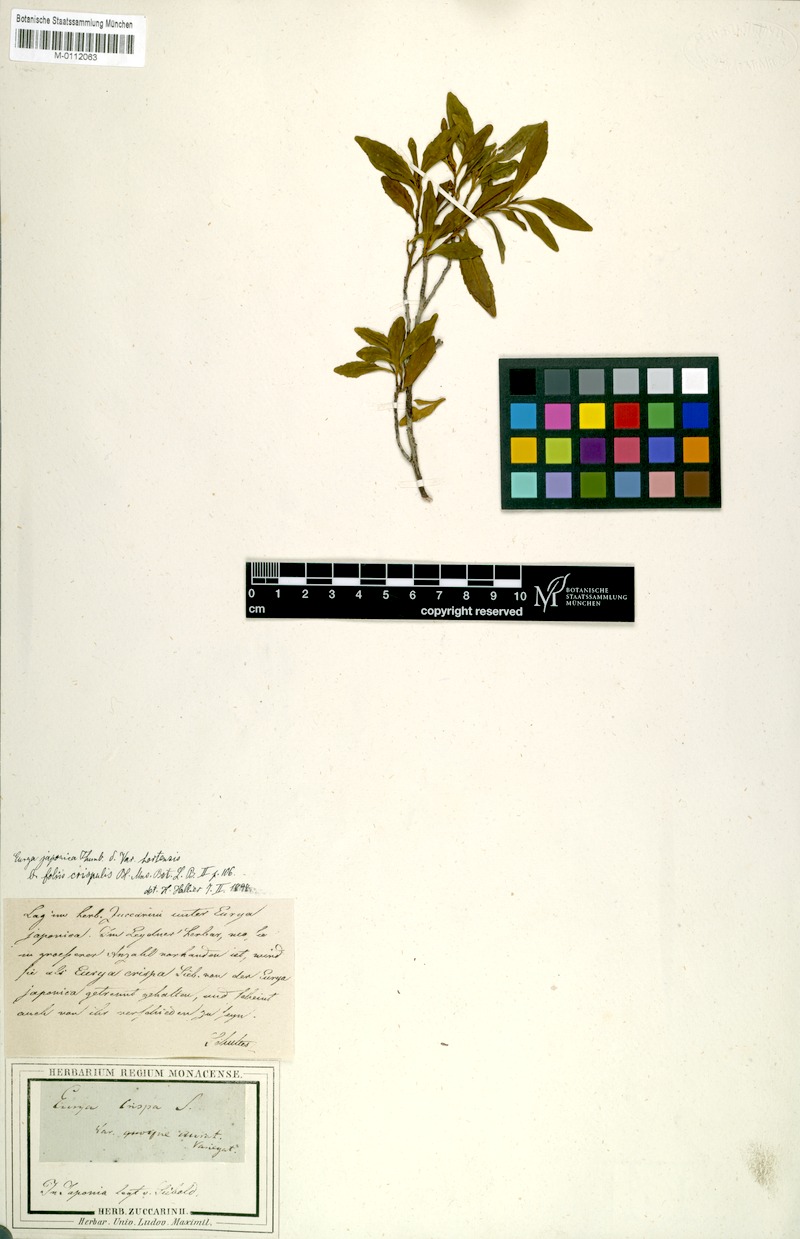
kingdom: Plantae
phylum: Tracheophyta
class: Magnoliopsida
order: Ericales
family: Pentaphylacaceae
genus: Eurya
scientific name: Eurya japonica
